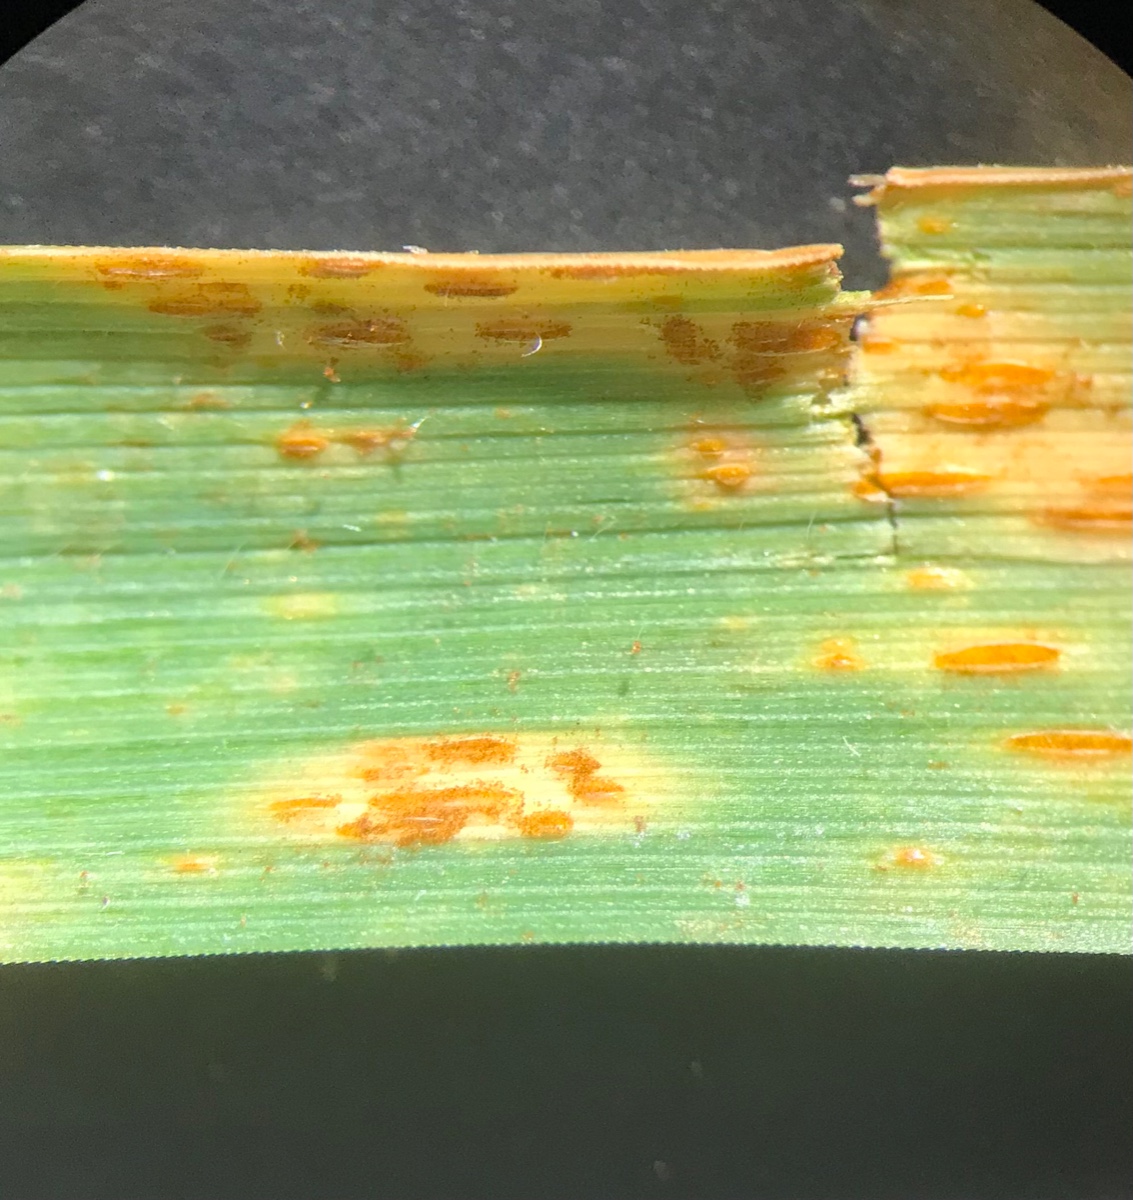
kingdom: Fungi
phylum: Basidiomycota
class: Pucciniomycetes
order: Pucciniales
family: Pucciniaceae
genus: Puccinia
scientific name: Puccinia
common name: tvecellerust
